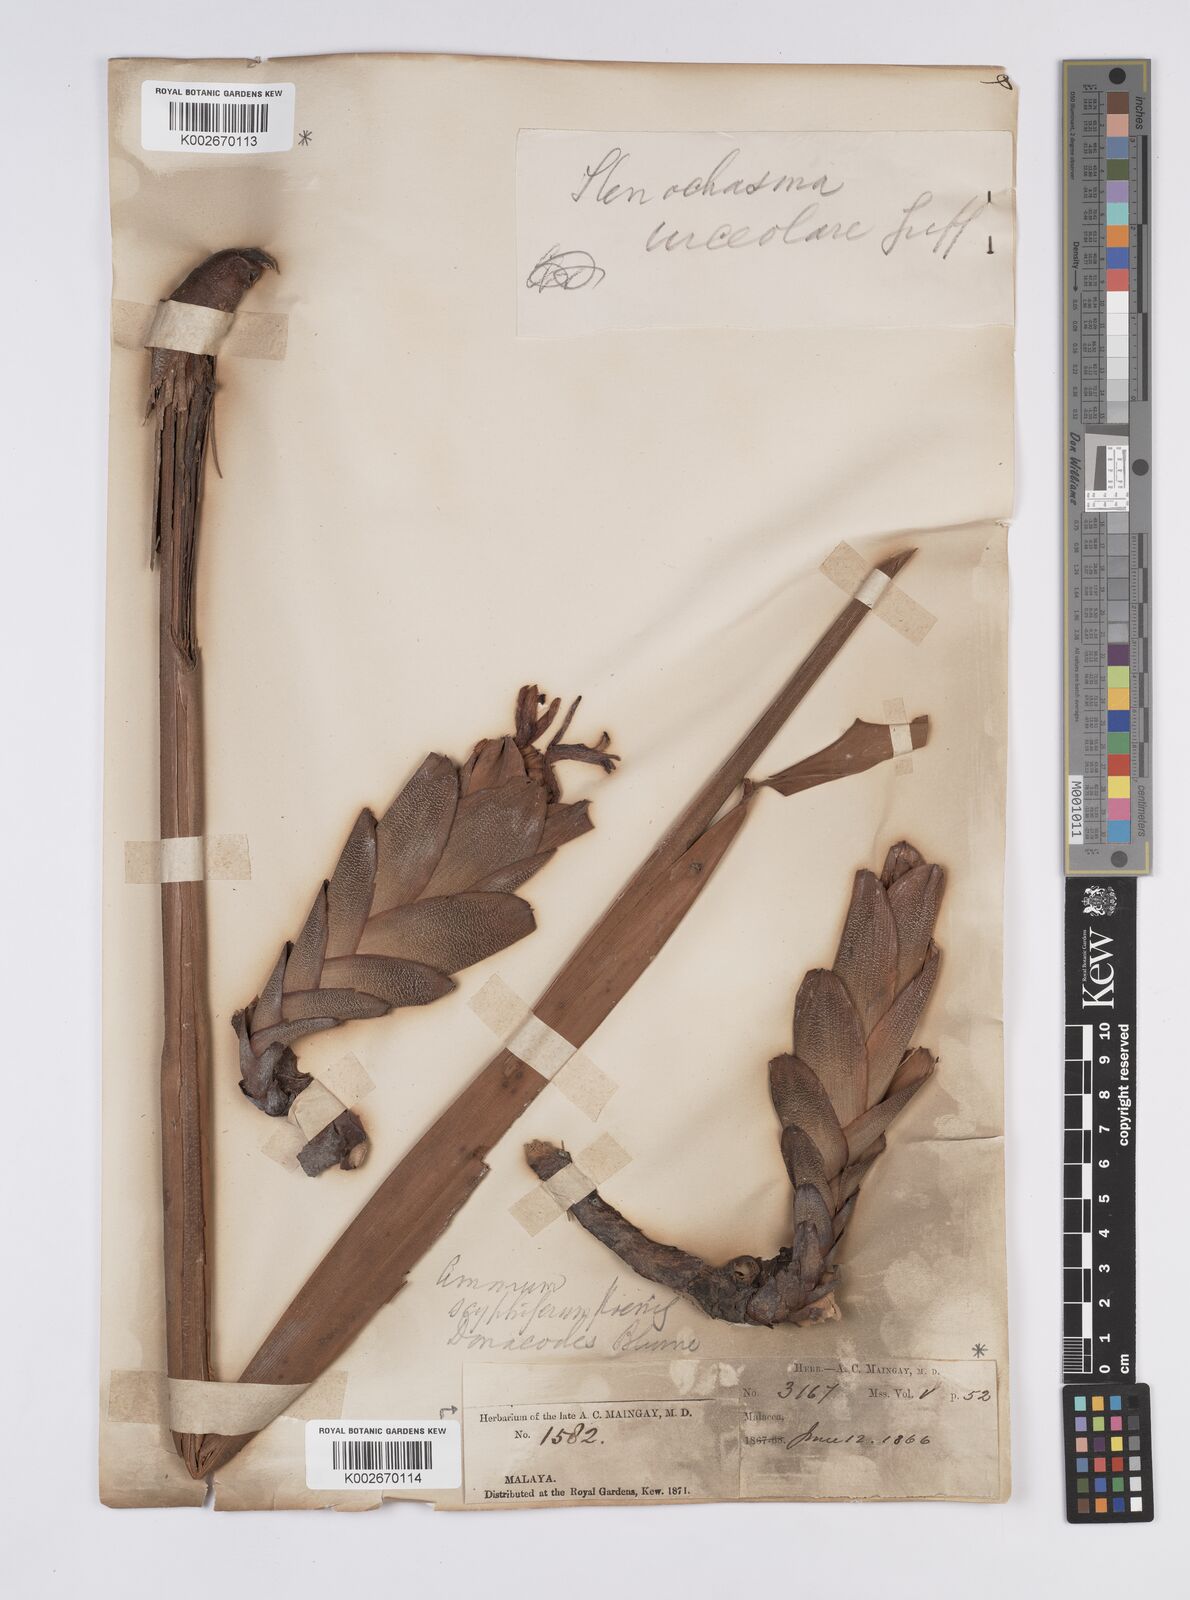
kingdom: Plantae
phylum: Tracheophyta
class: Liliopsida
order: Zingiberales
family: Zingiberaceae
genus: Hornstedtia
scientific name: Hornstedtia scyphifera
